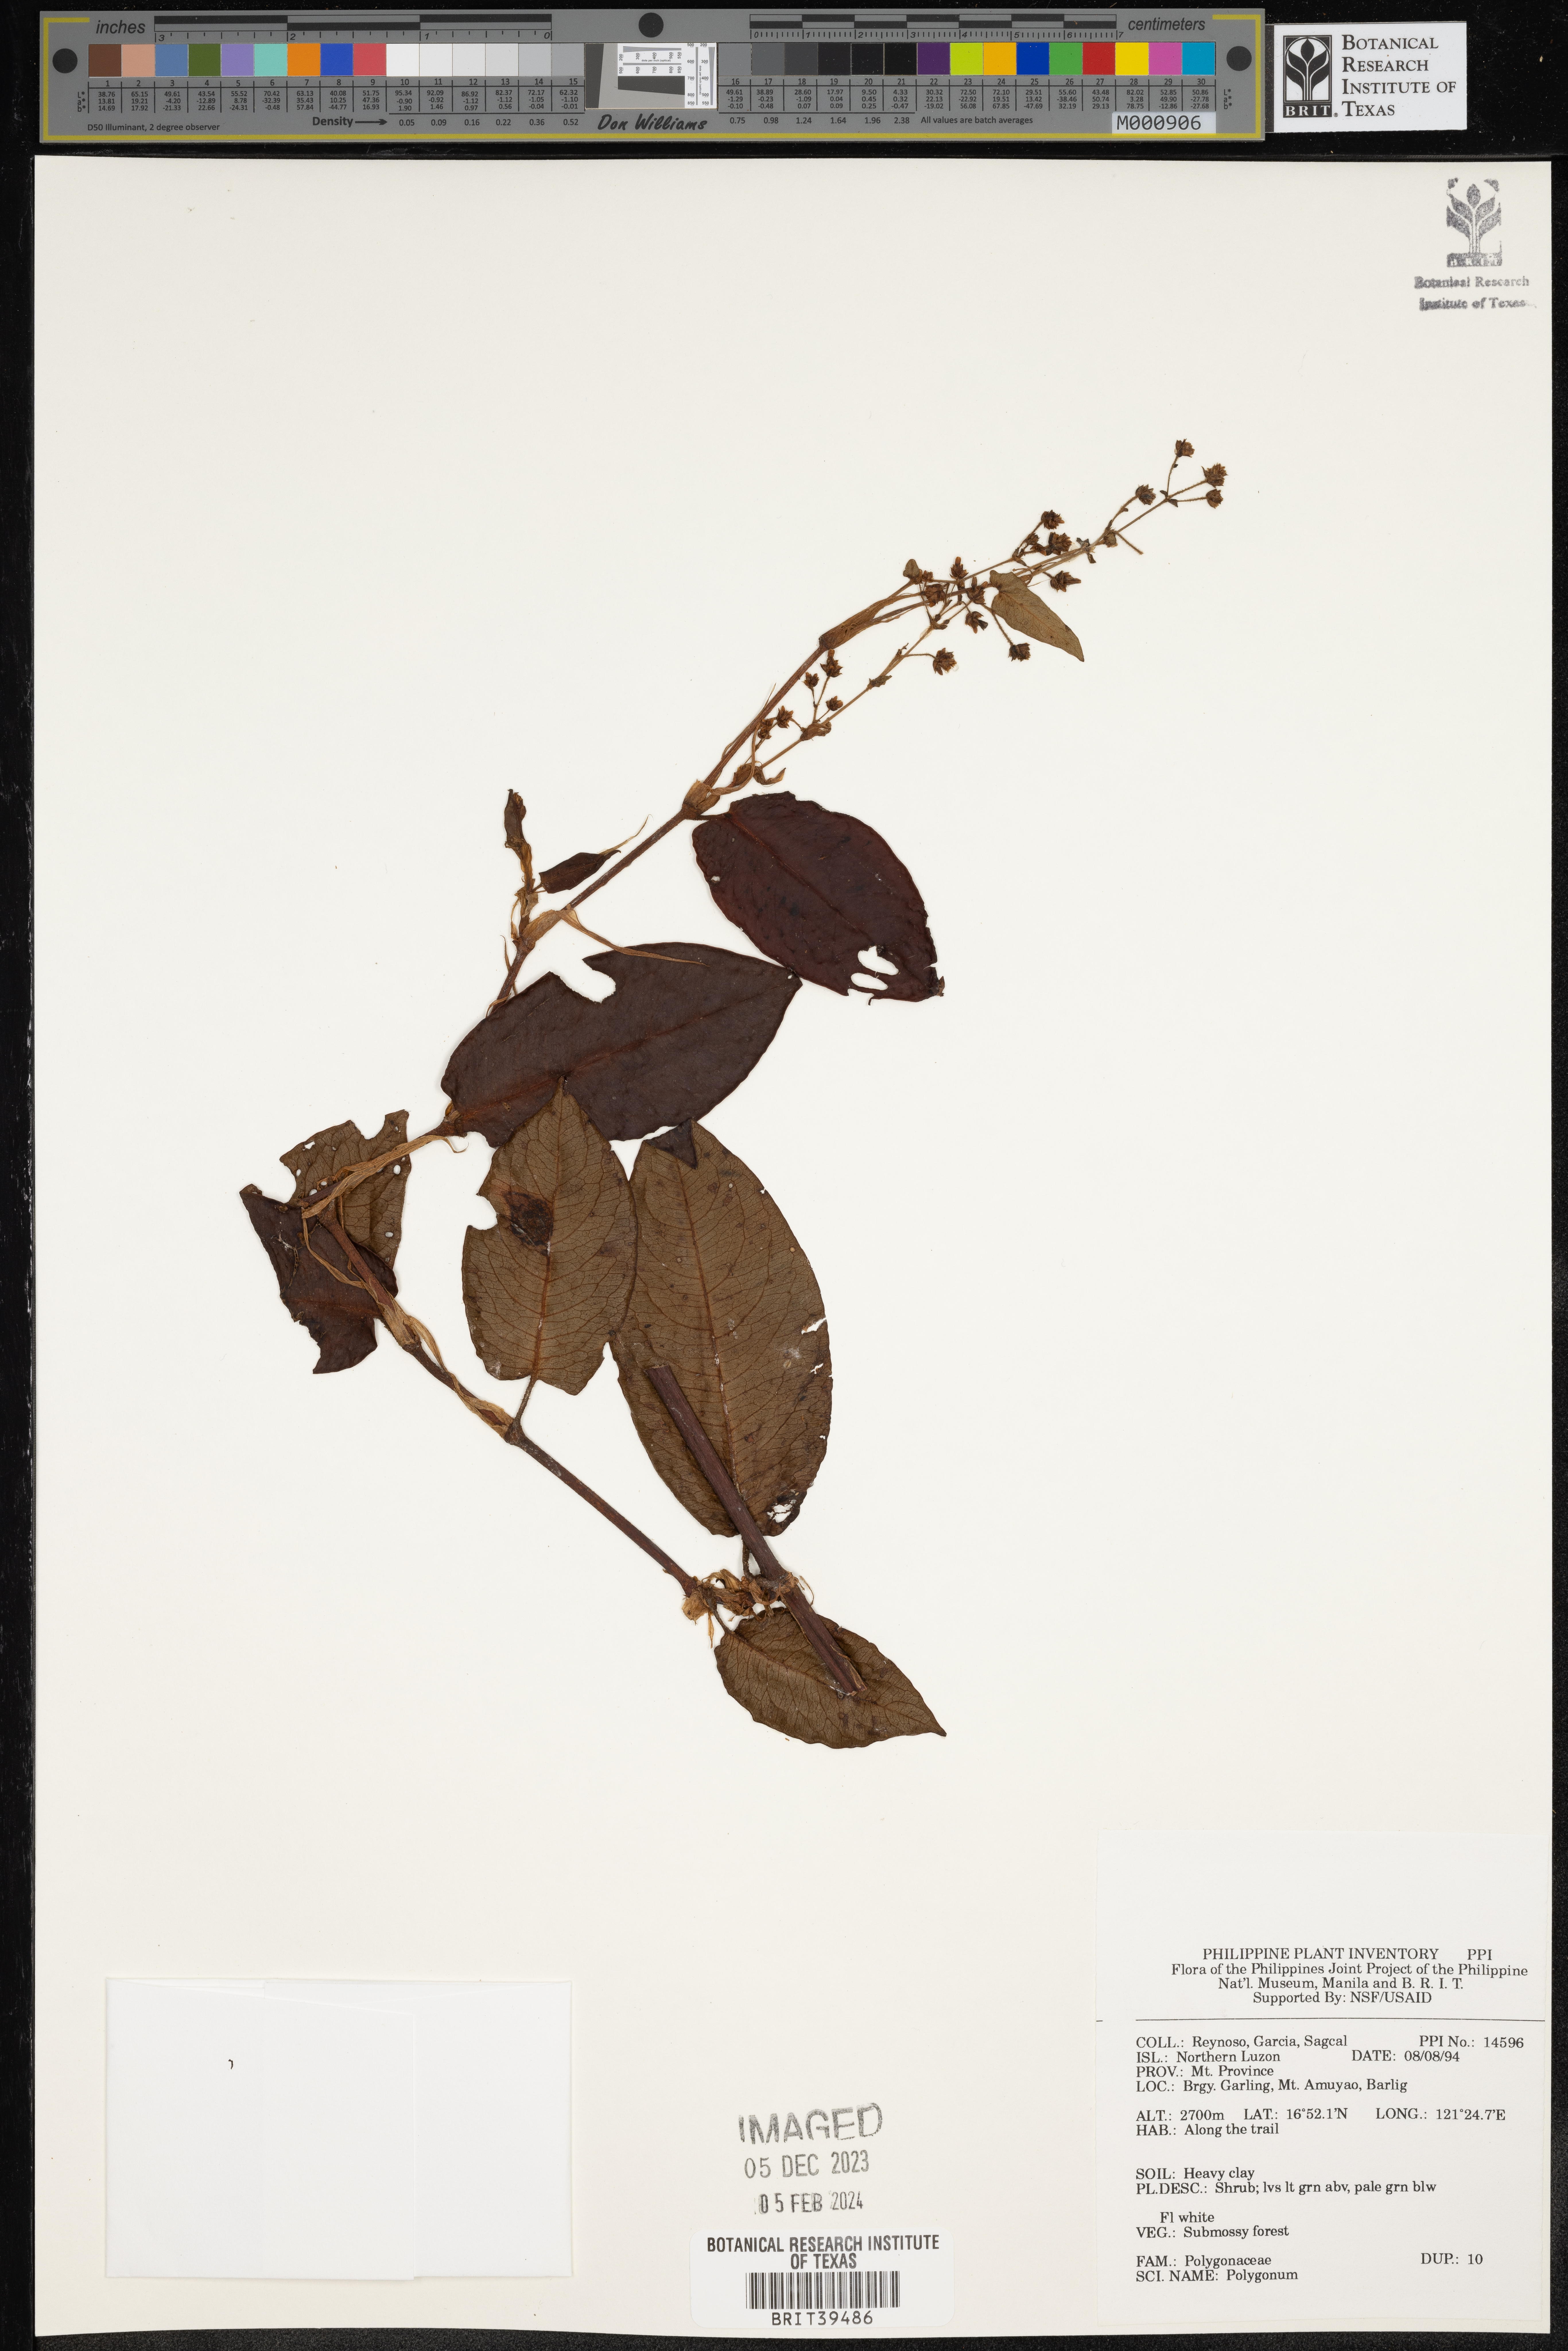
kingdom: Plantae
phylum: Tracheophyta
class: Magnoliopsida
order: Caryophyllales
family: Polygonaceae
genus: Polygonum
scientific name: Polygonum
